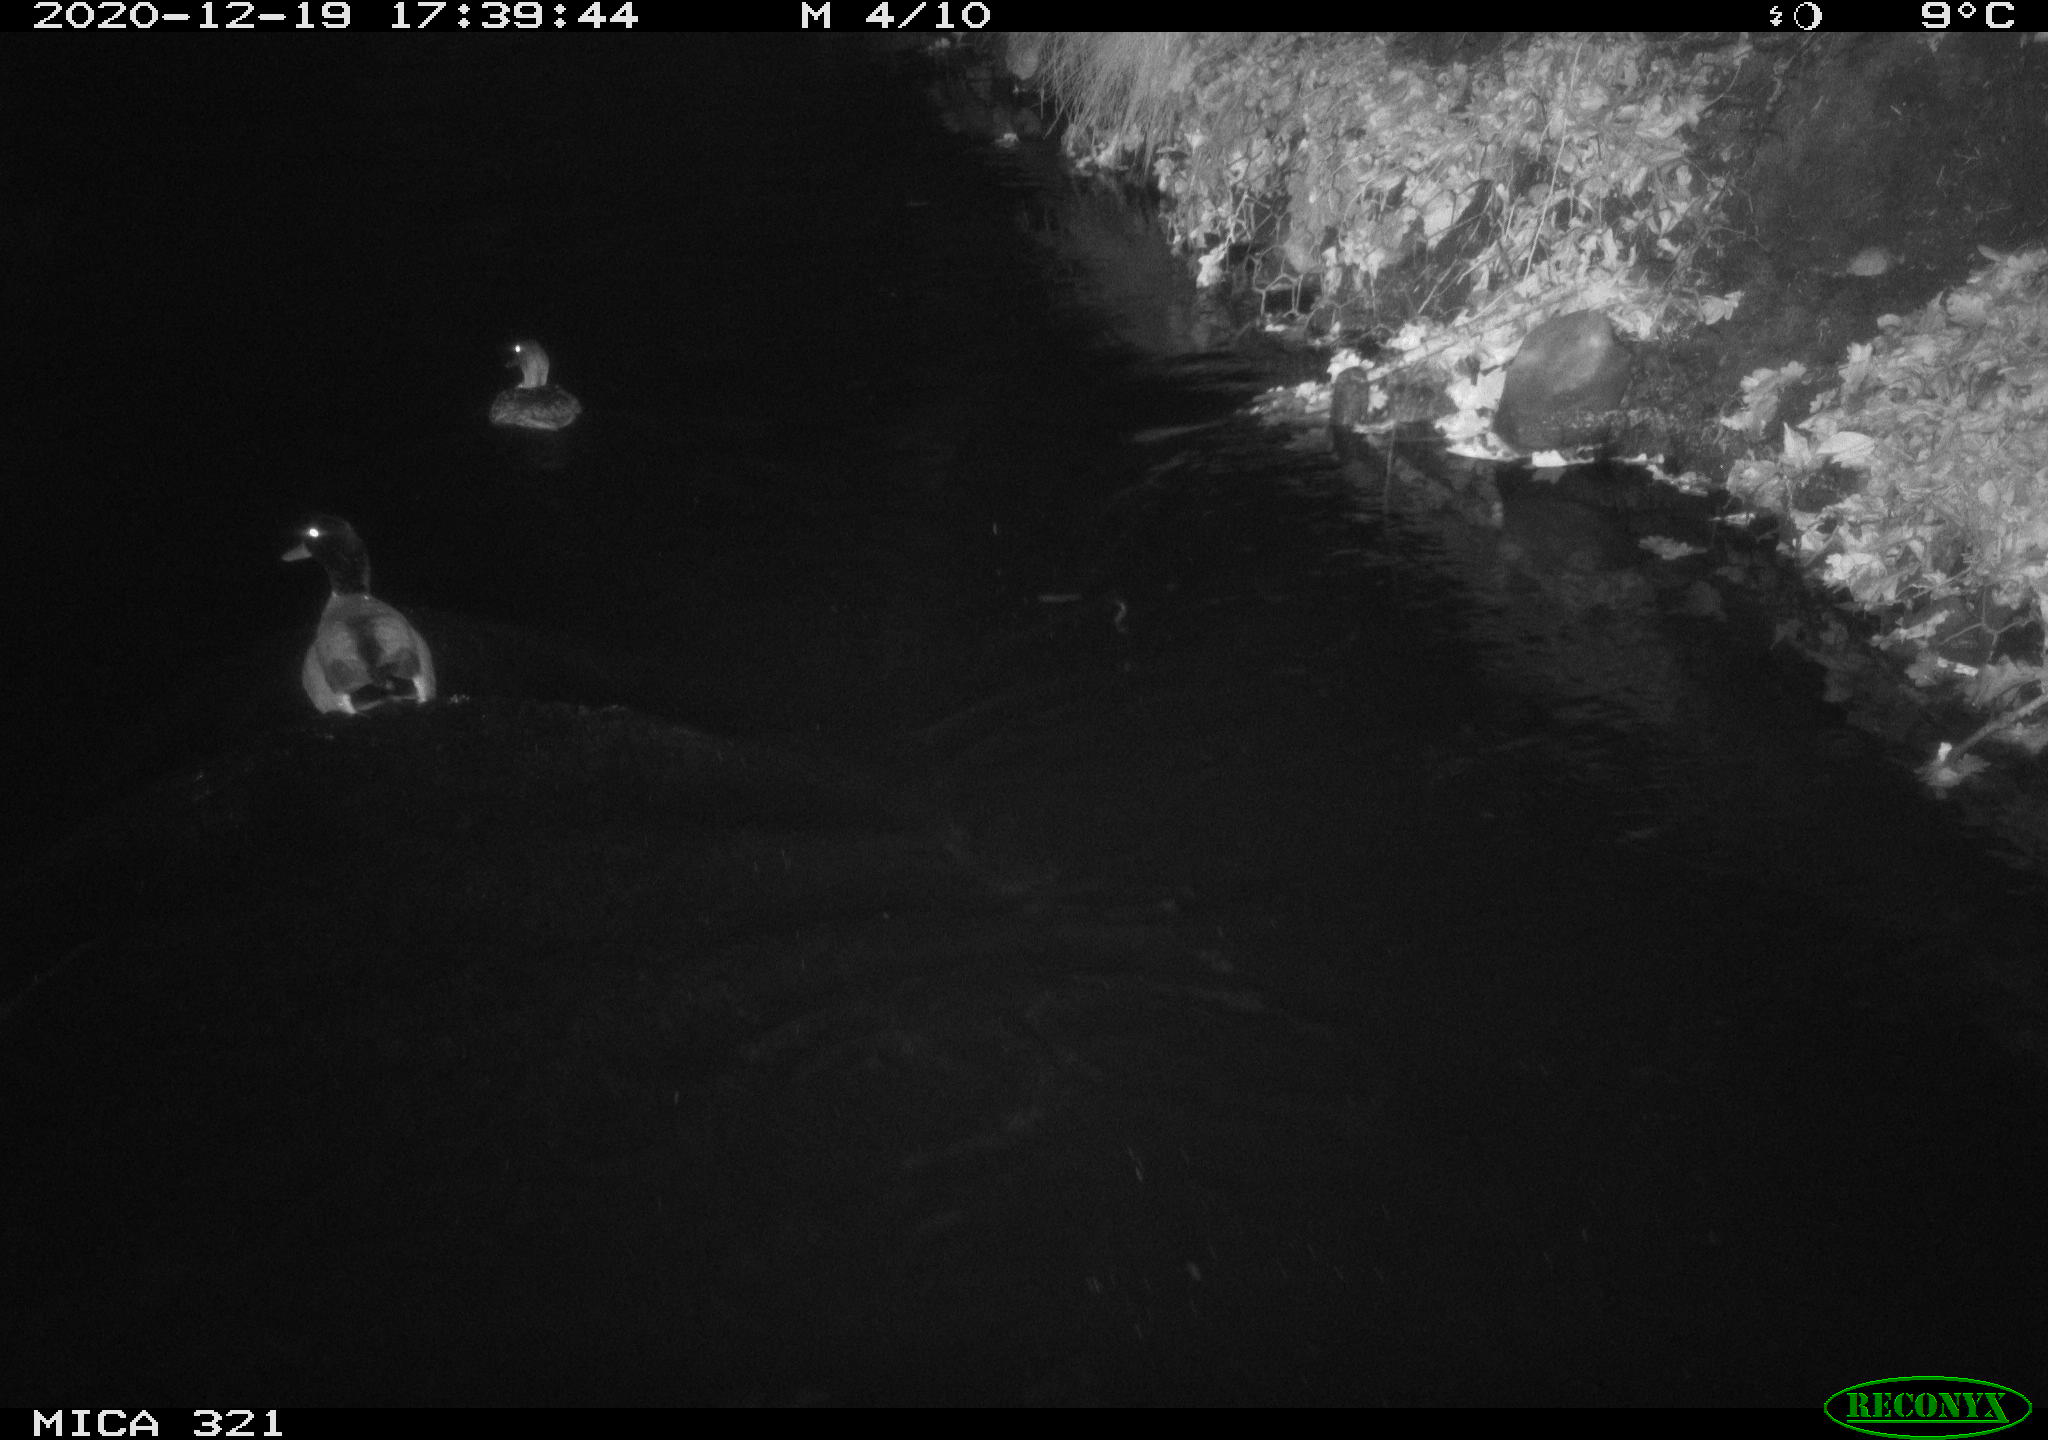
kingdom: Animalia
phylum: Chordata
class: Aves
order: Anseriformes
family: Anatidae
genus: Anas
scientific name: Anas platyrhynchos
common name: Mallard
